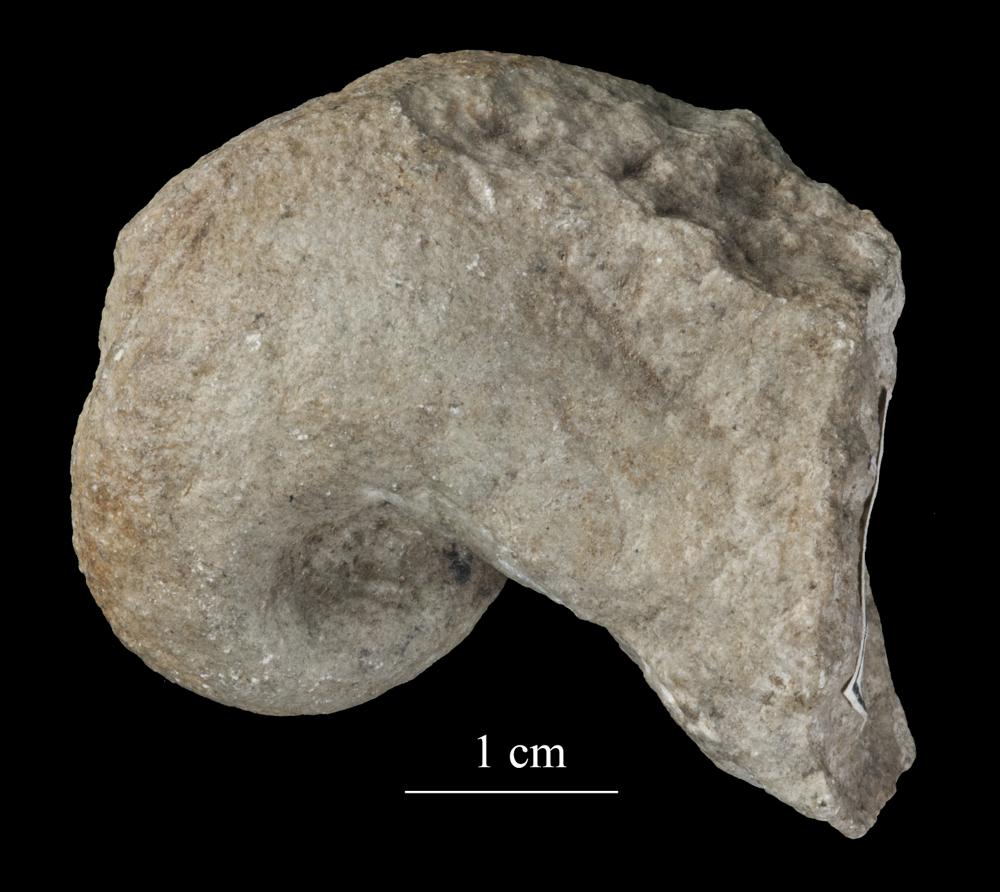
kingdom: Animalia
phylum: Mollusca
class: Gastropoda
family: Bellerophontidae
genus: Bellerophon
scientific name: Bellerophon
